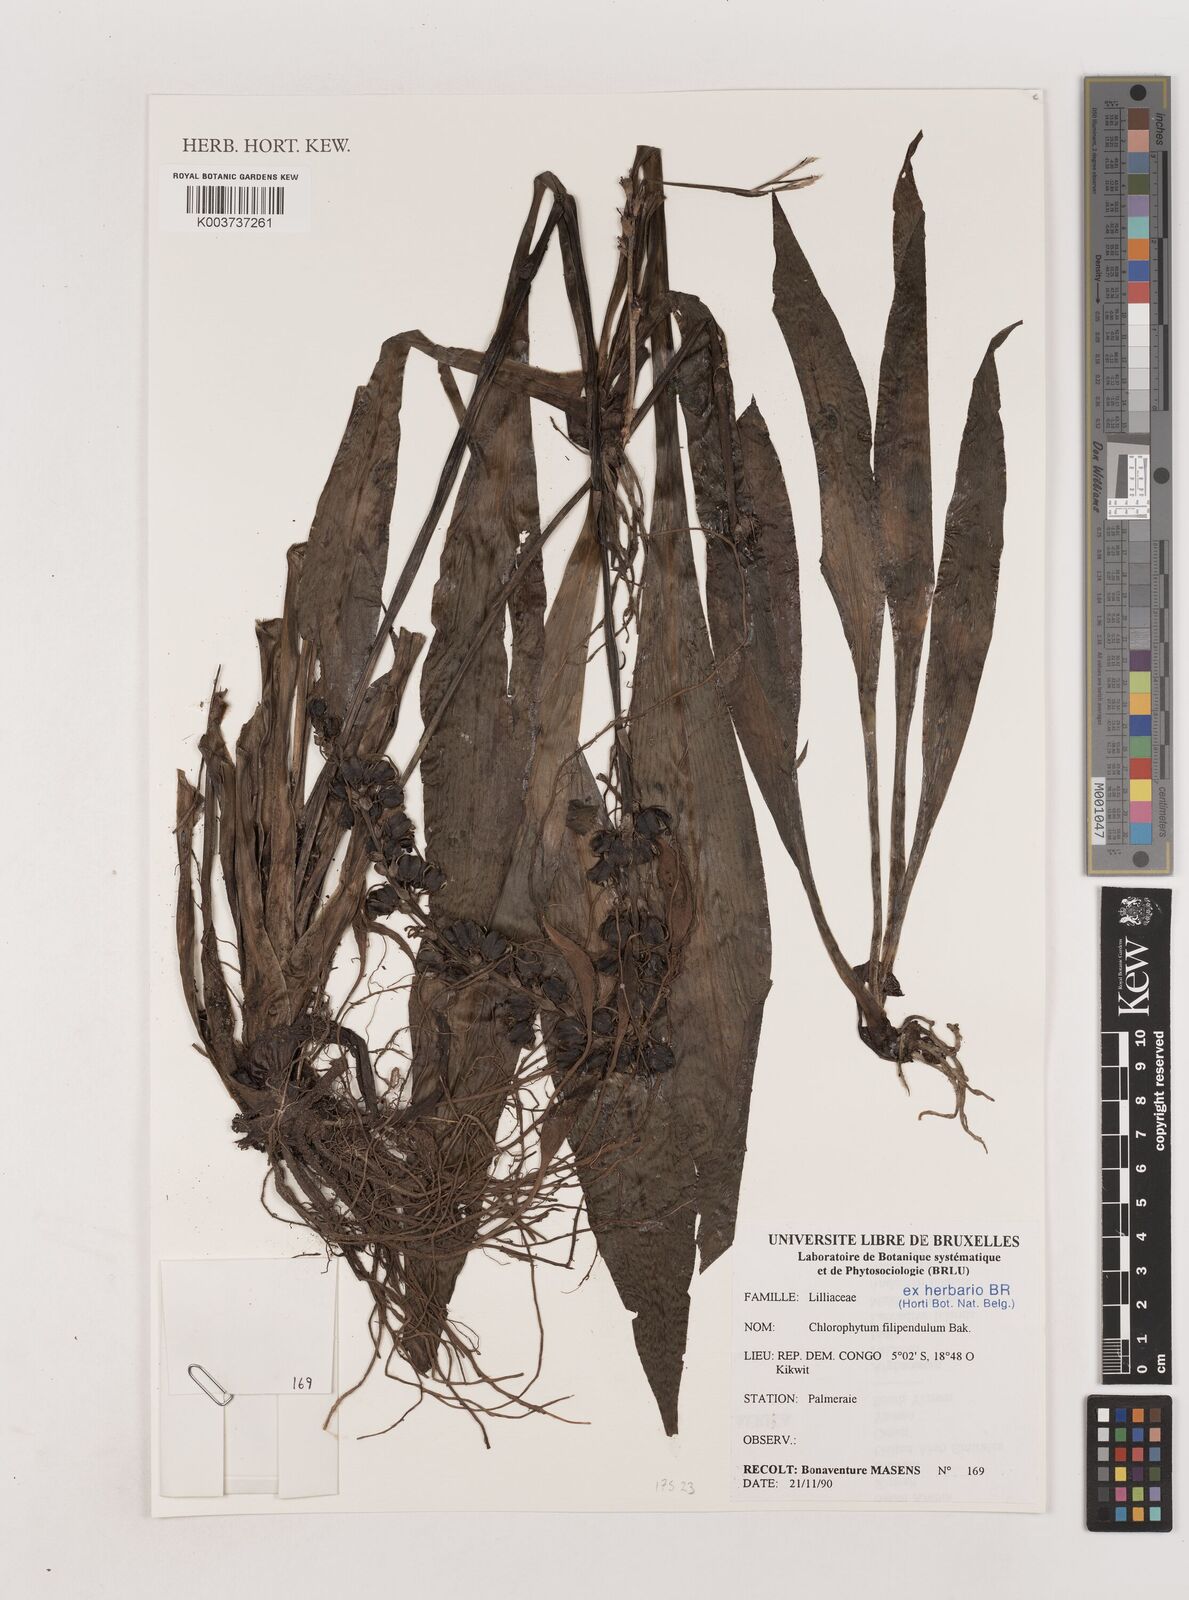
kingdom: Plantae
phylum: Tracheophyta
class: Liliopsida
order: Asparagales
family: Asparagaceae
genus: Chlorophytum
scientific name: Chlorophytum filipendulum
